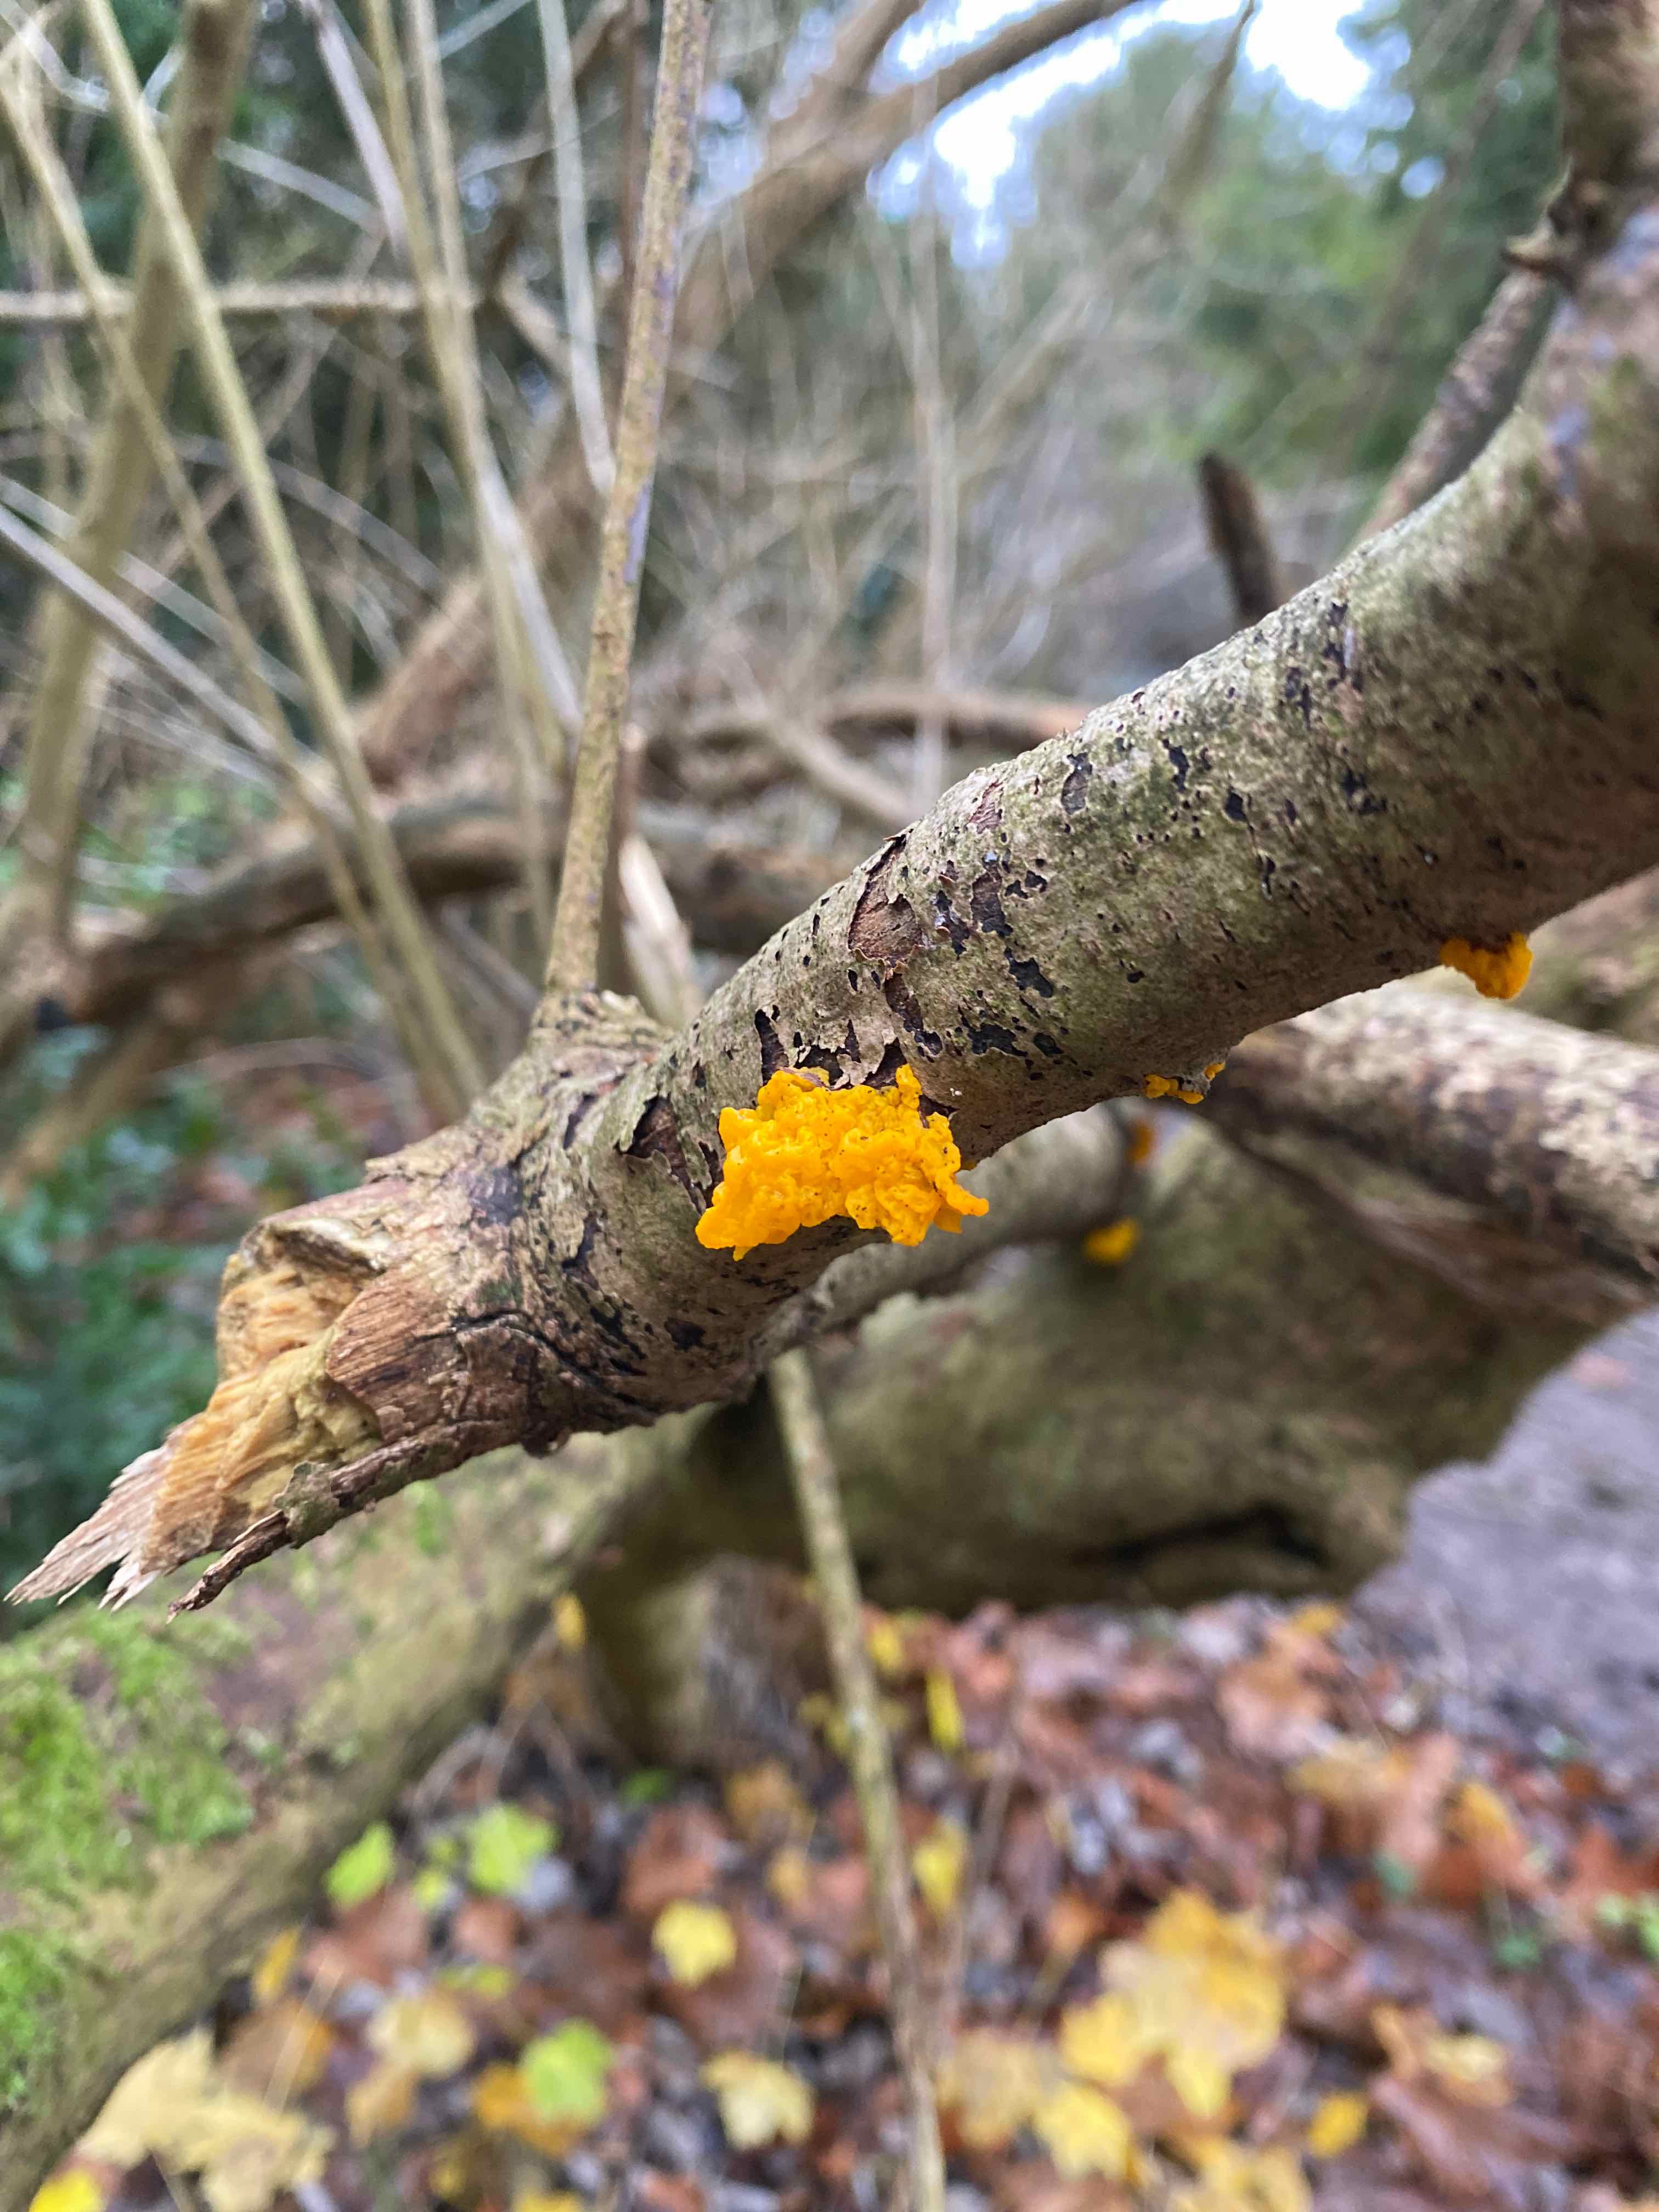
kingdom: Fungi
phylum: Basidiomycota
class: Tremellomycetes
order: Tremellales
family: Tremellaceae
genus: Tremella
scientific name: Tremella mesenterica
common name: gul bævresvamp
